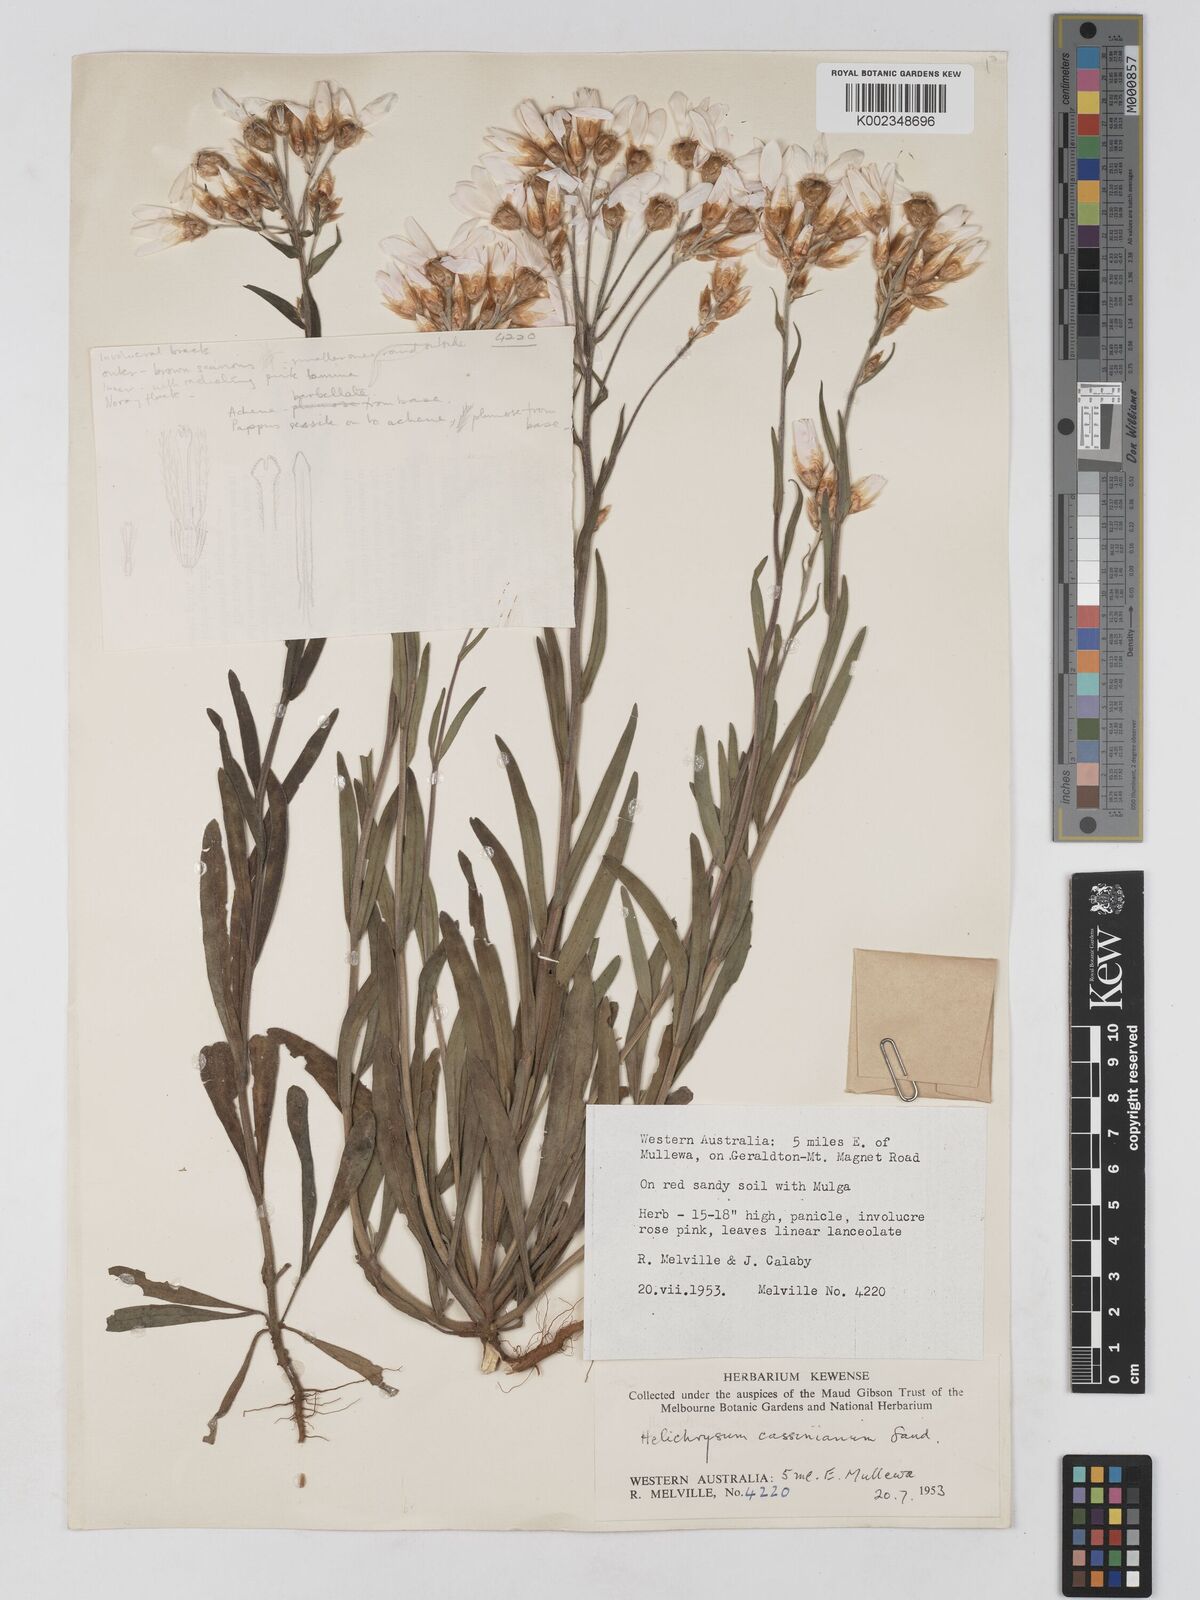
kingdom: Plantae
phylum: Tracheophyta
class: Magnoliopsida
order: Asterales
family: Asteraceae
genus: Schoenia
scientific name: Schoenia cassiniana
